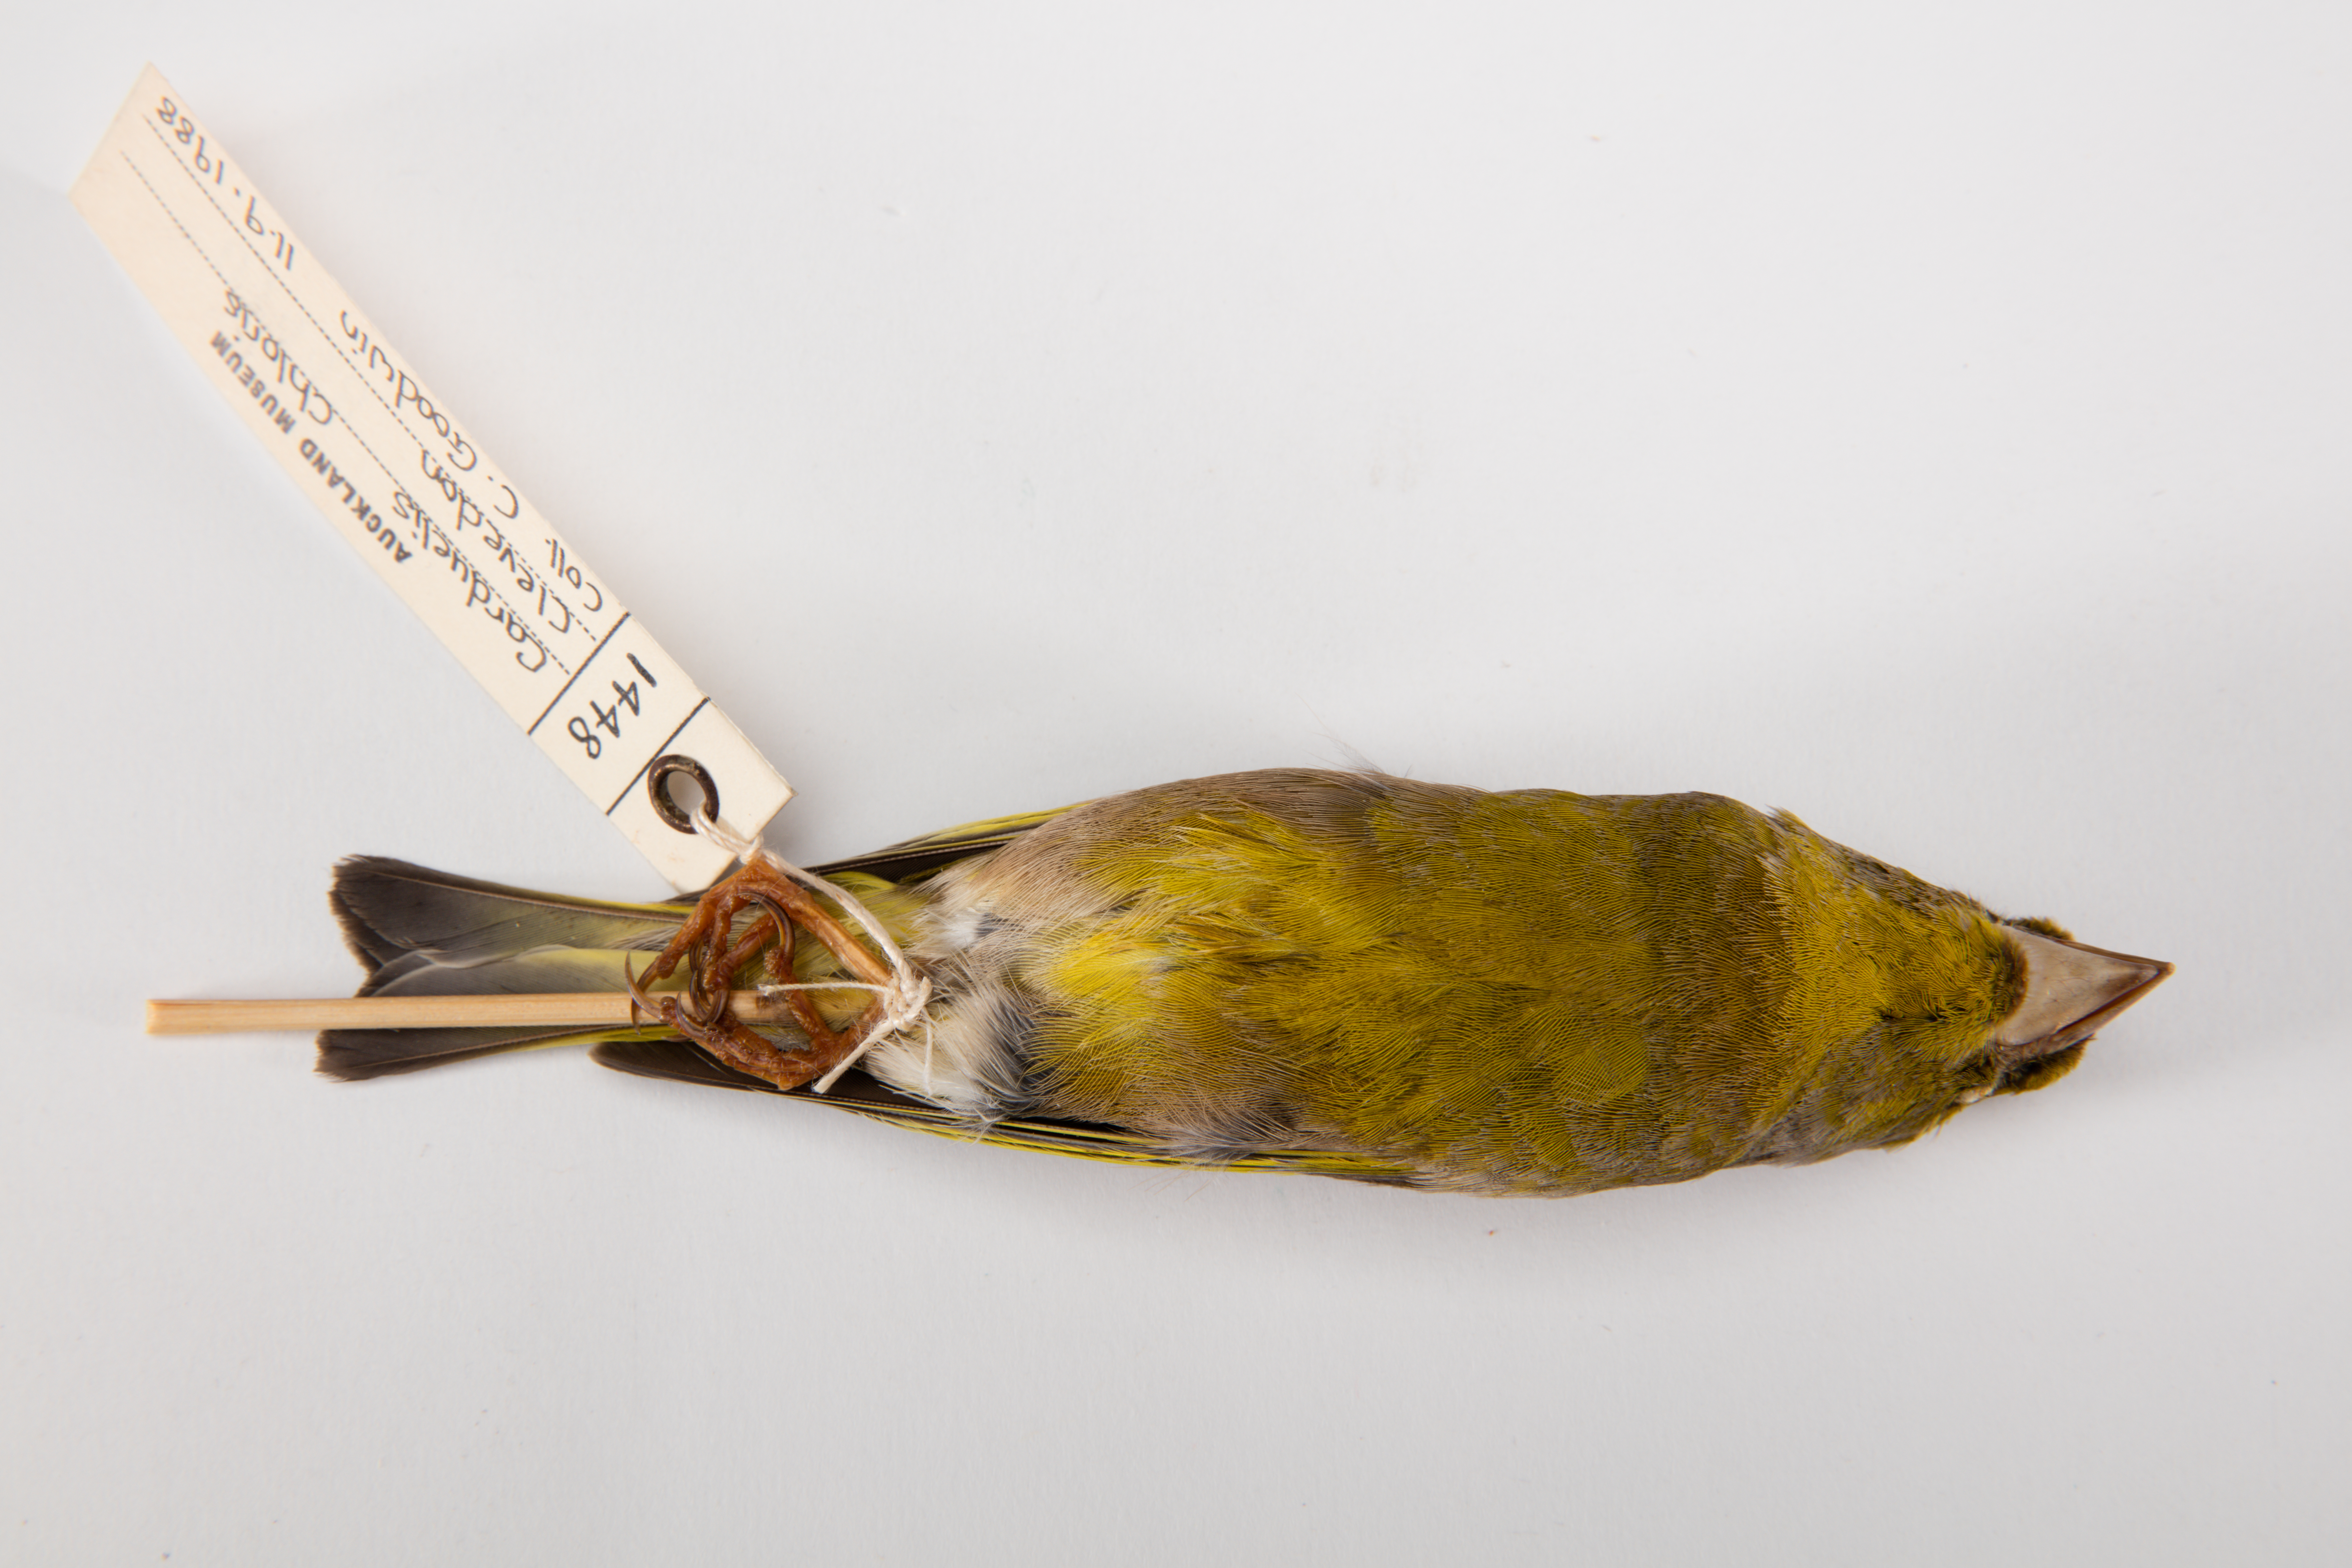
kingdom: Plantae
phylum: Tracheophyta
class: Liliopsida
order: Poales
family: Poaceae
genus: Chloris
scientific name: Chloris chloris
